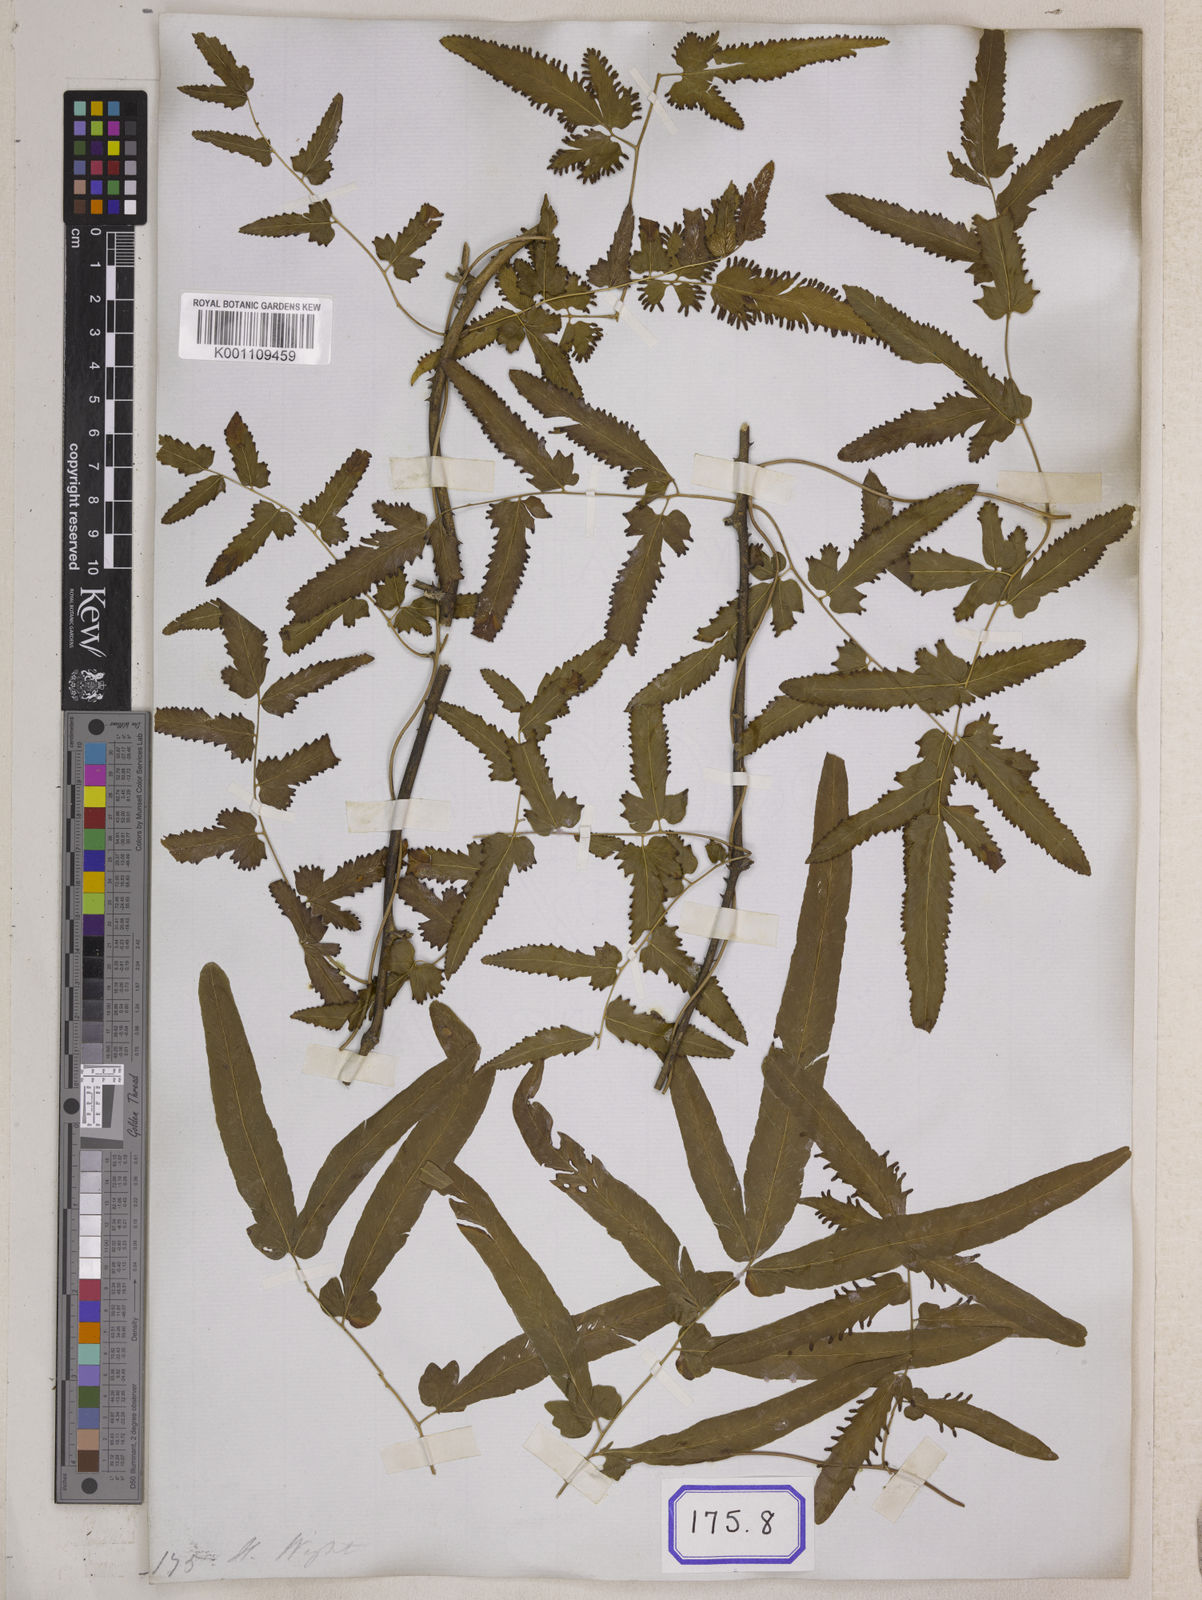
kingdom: Plantae
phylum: Tracheophyta
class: Polypodiopsida
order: Schizaeales
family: Lygodiaceae
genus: Lygodium
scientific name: Lygodium flexuosum
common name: Maidenhair creeper
